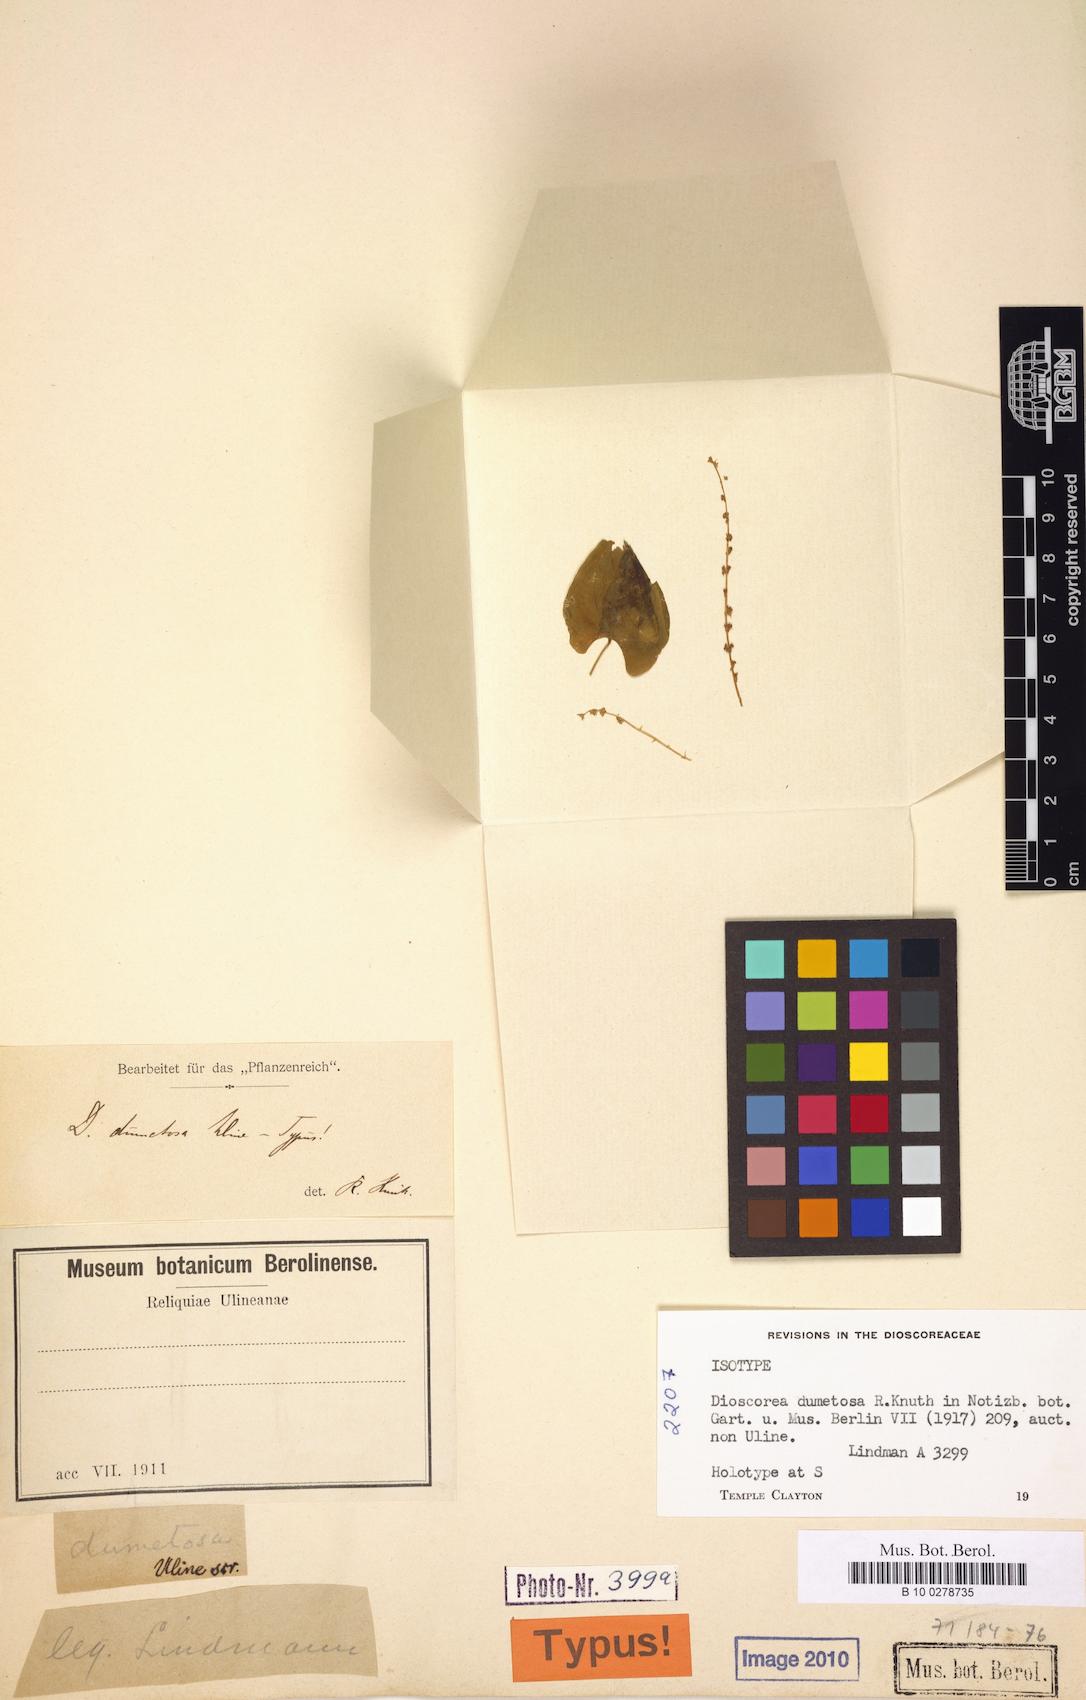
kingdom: Plantae
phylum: Tracheophyta
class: Liliopsida
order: Dioscoreales
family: Dioscoreaceae
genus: Dioscorea
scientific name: Dioscorea dumetosa
